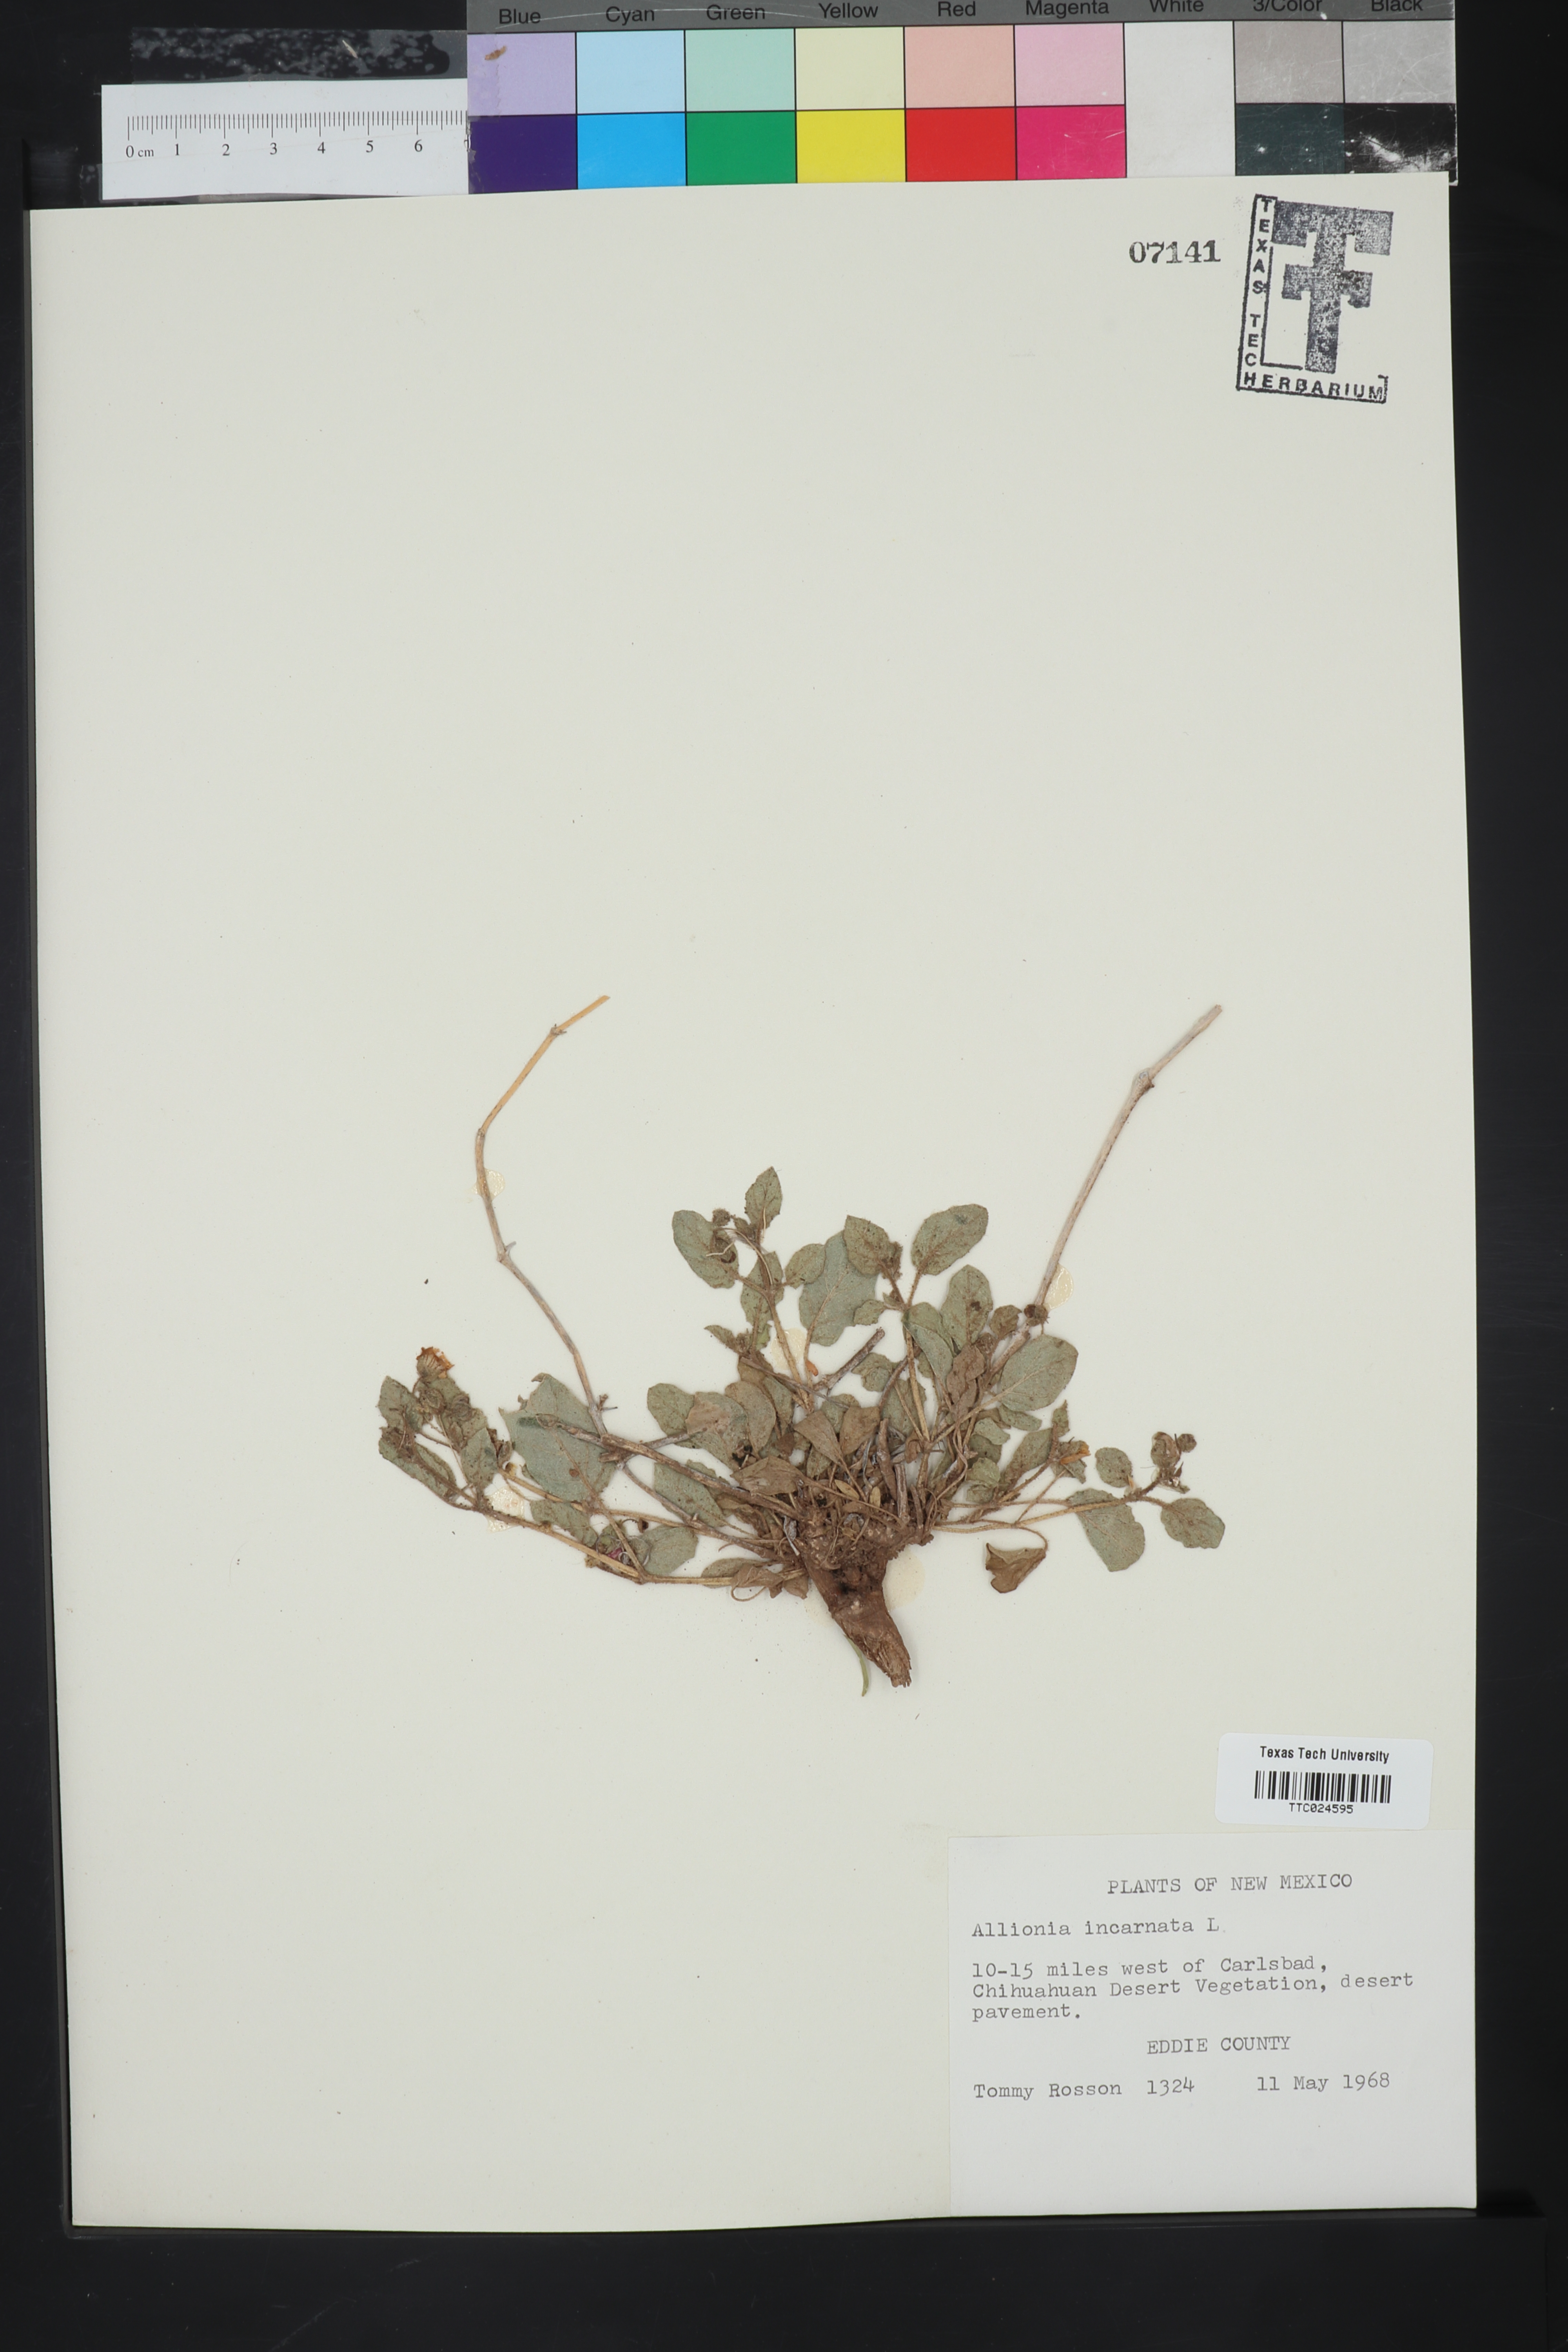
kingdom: Plantae
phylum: Tracheophyta
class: Magnoliopsida
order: Caryophyllales
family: Nyctaginaceae
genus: Allionia
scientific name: Allionia incarnata
